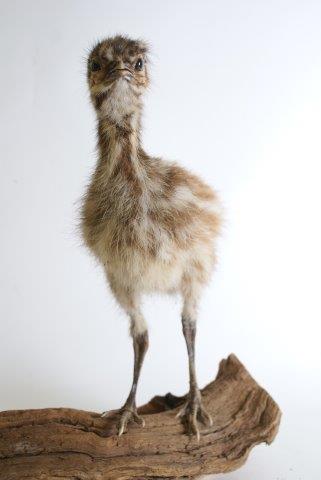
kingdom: Animalia
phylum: Chordata
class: Aves
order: Casuariiformes
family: Dromaiidae
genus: Dromaius
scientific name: Dromaius novaehollandiae
